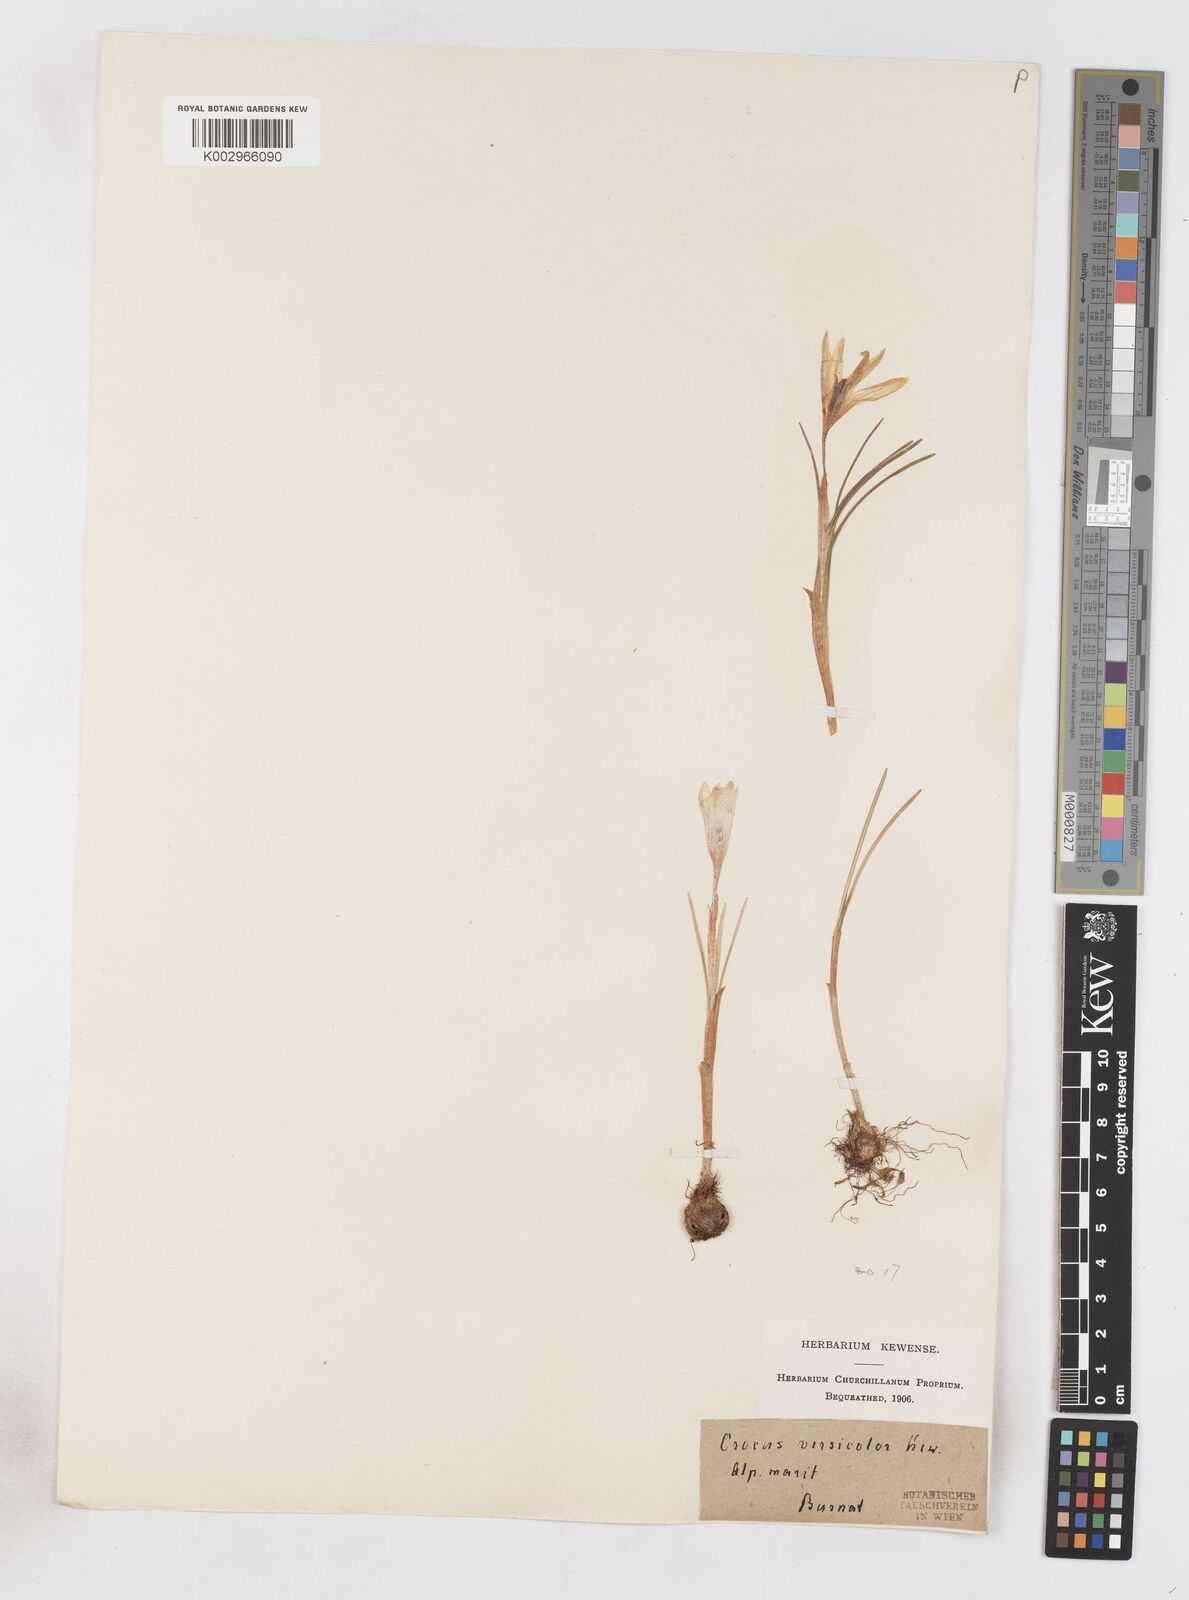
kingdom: Plantae
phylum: Tracheophyta
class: Liliopsida
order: Asparagales
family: Iridaceae
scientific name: Iridaceae
